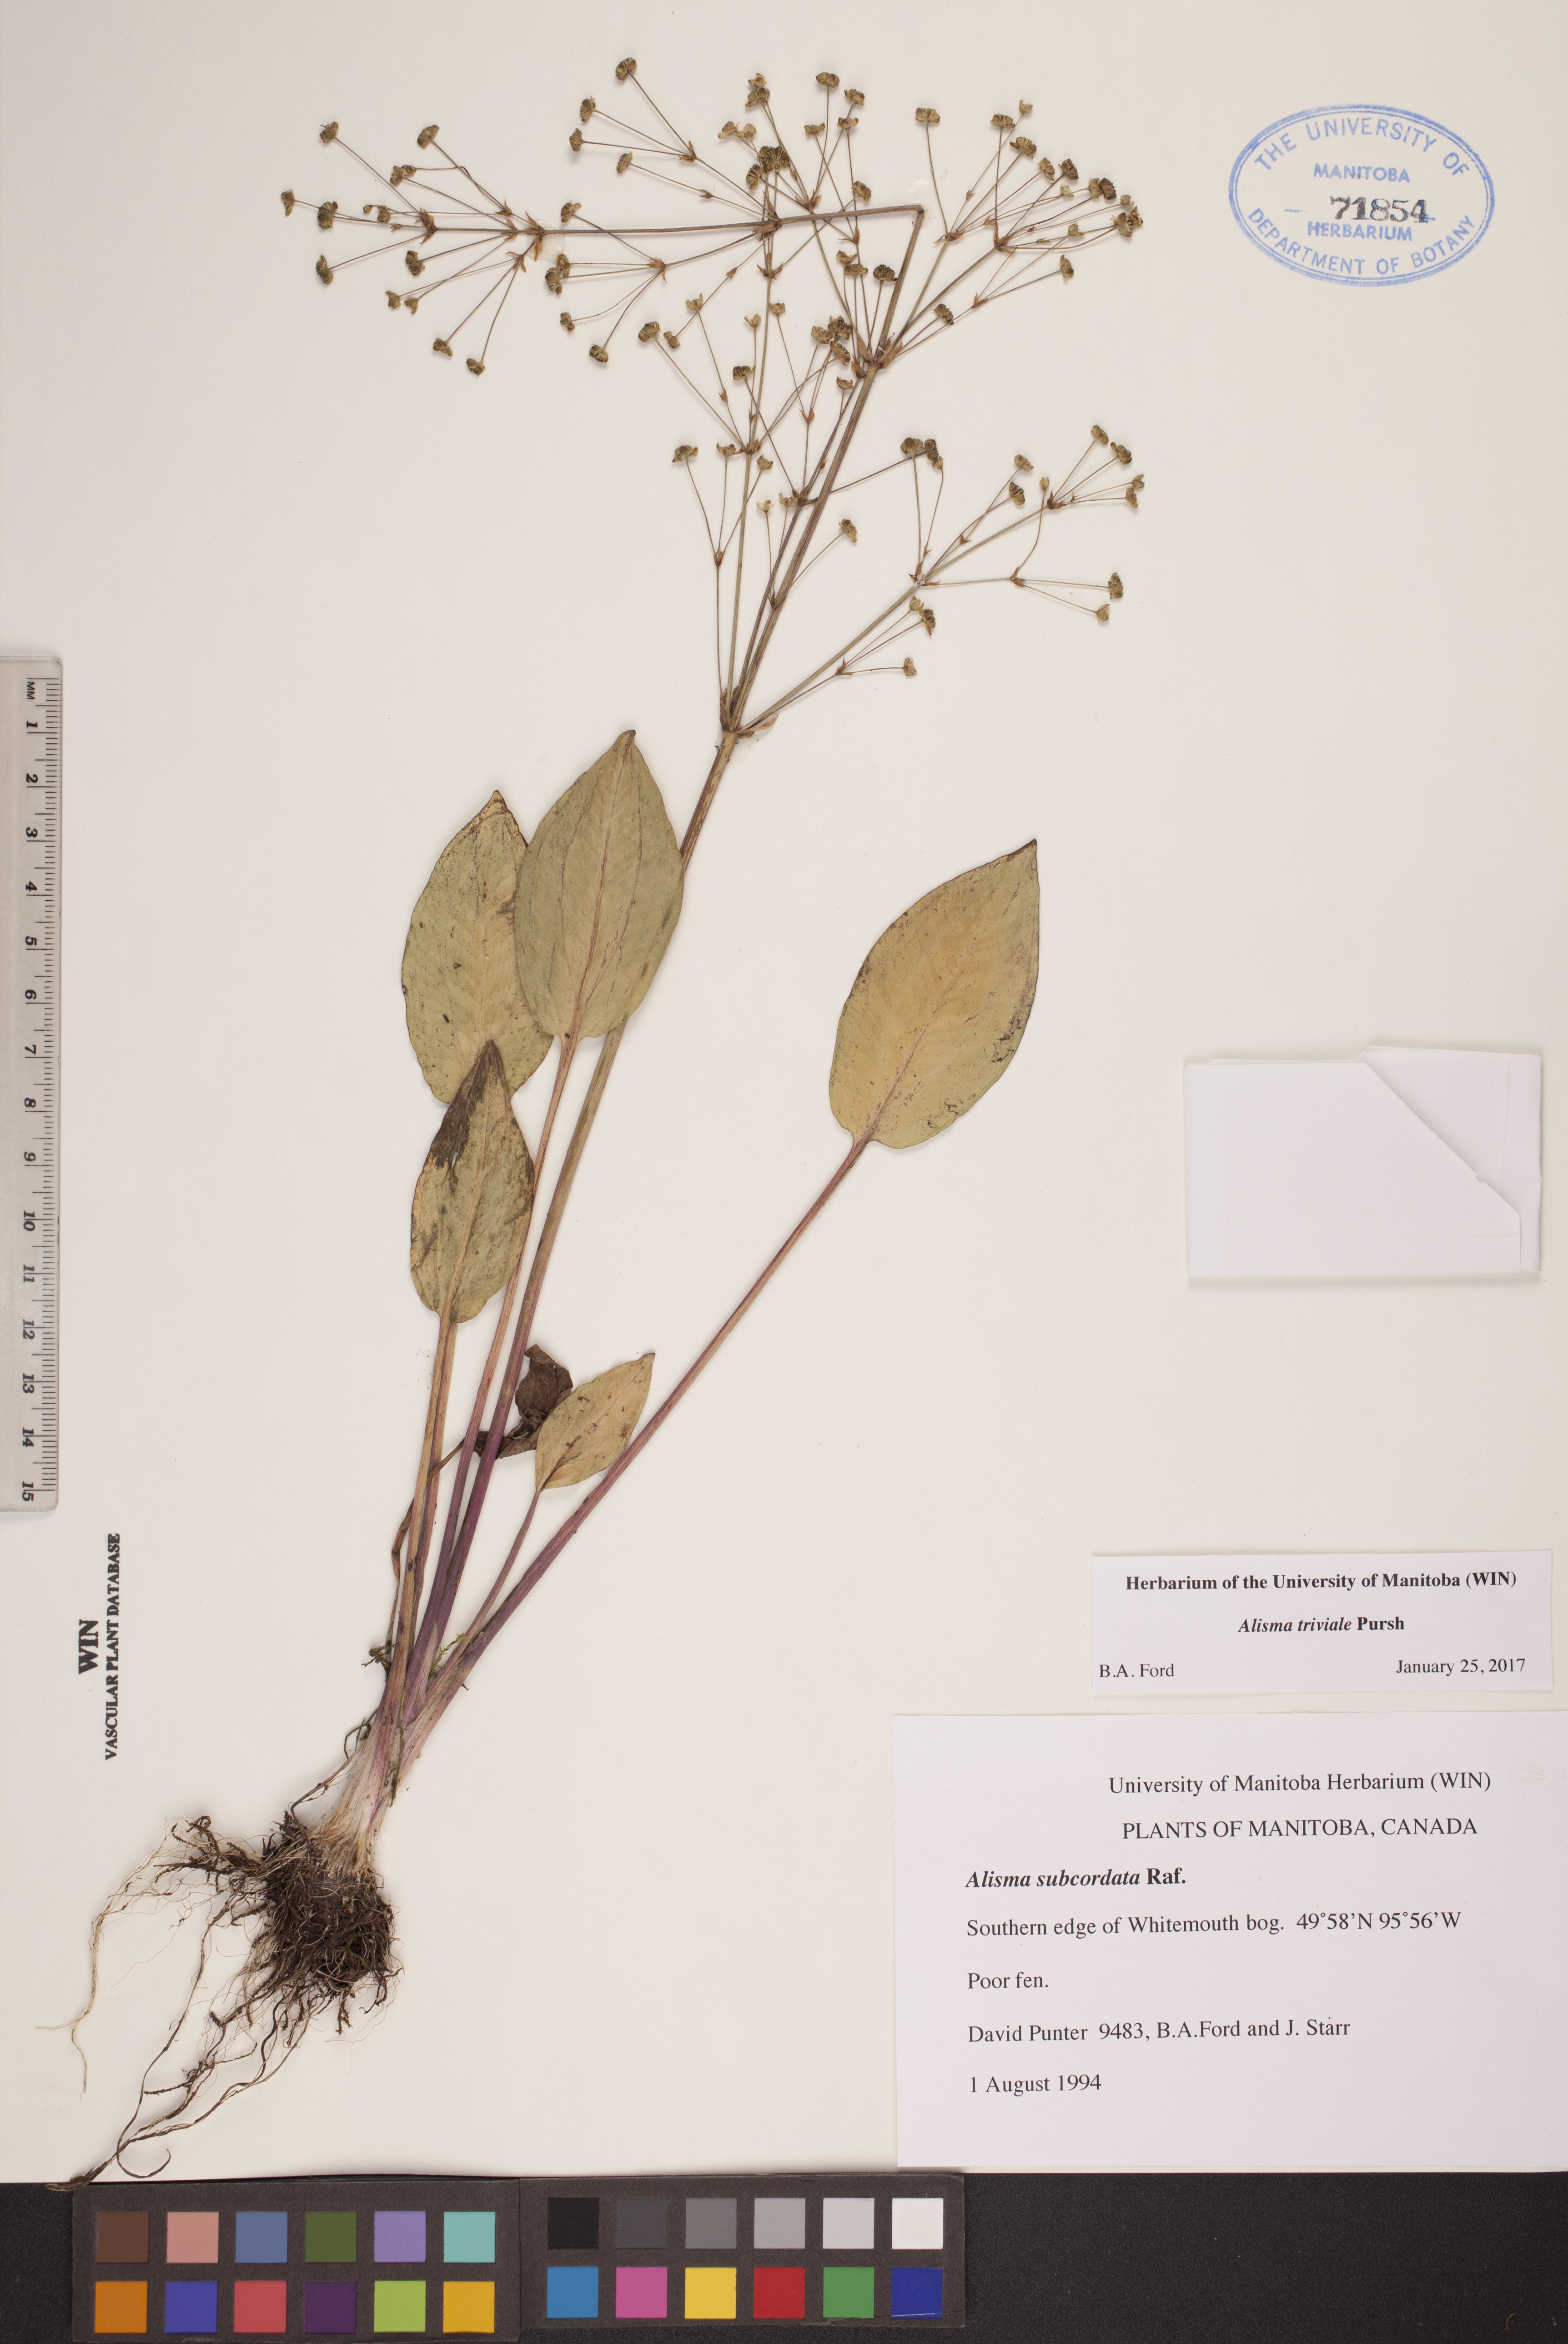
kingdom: Plantae
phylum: Tracheophyta
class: Liliopsida
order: Alismatales
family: Alismataceae
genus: Alisma
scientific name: Alisma triviale
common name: Northern water-plantain
